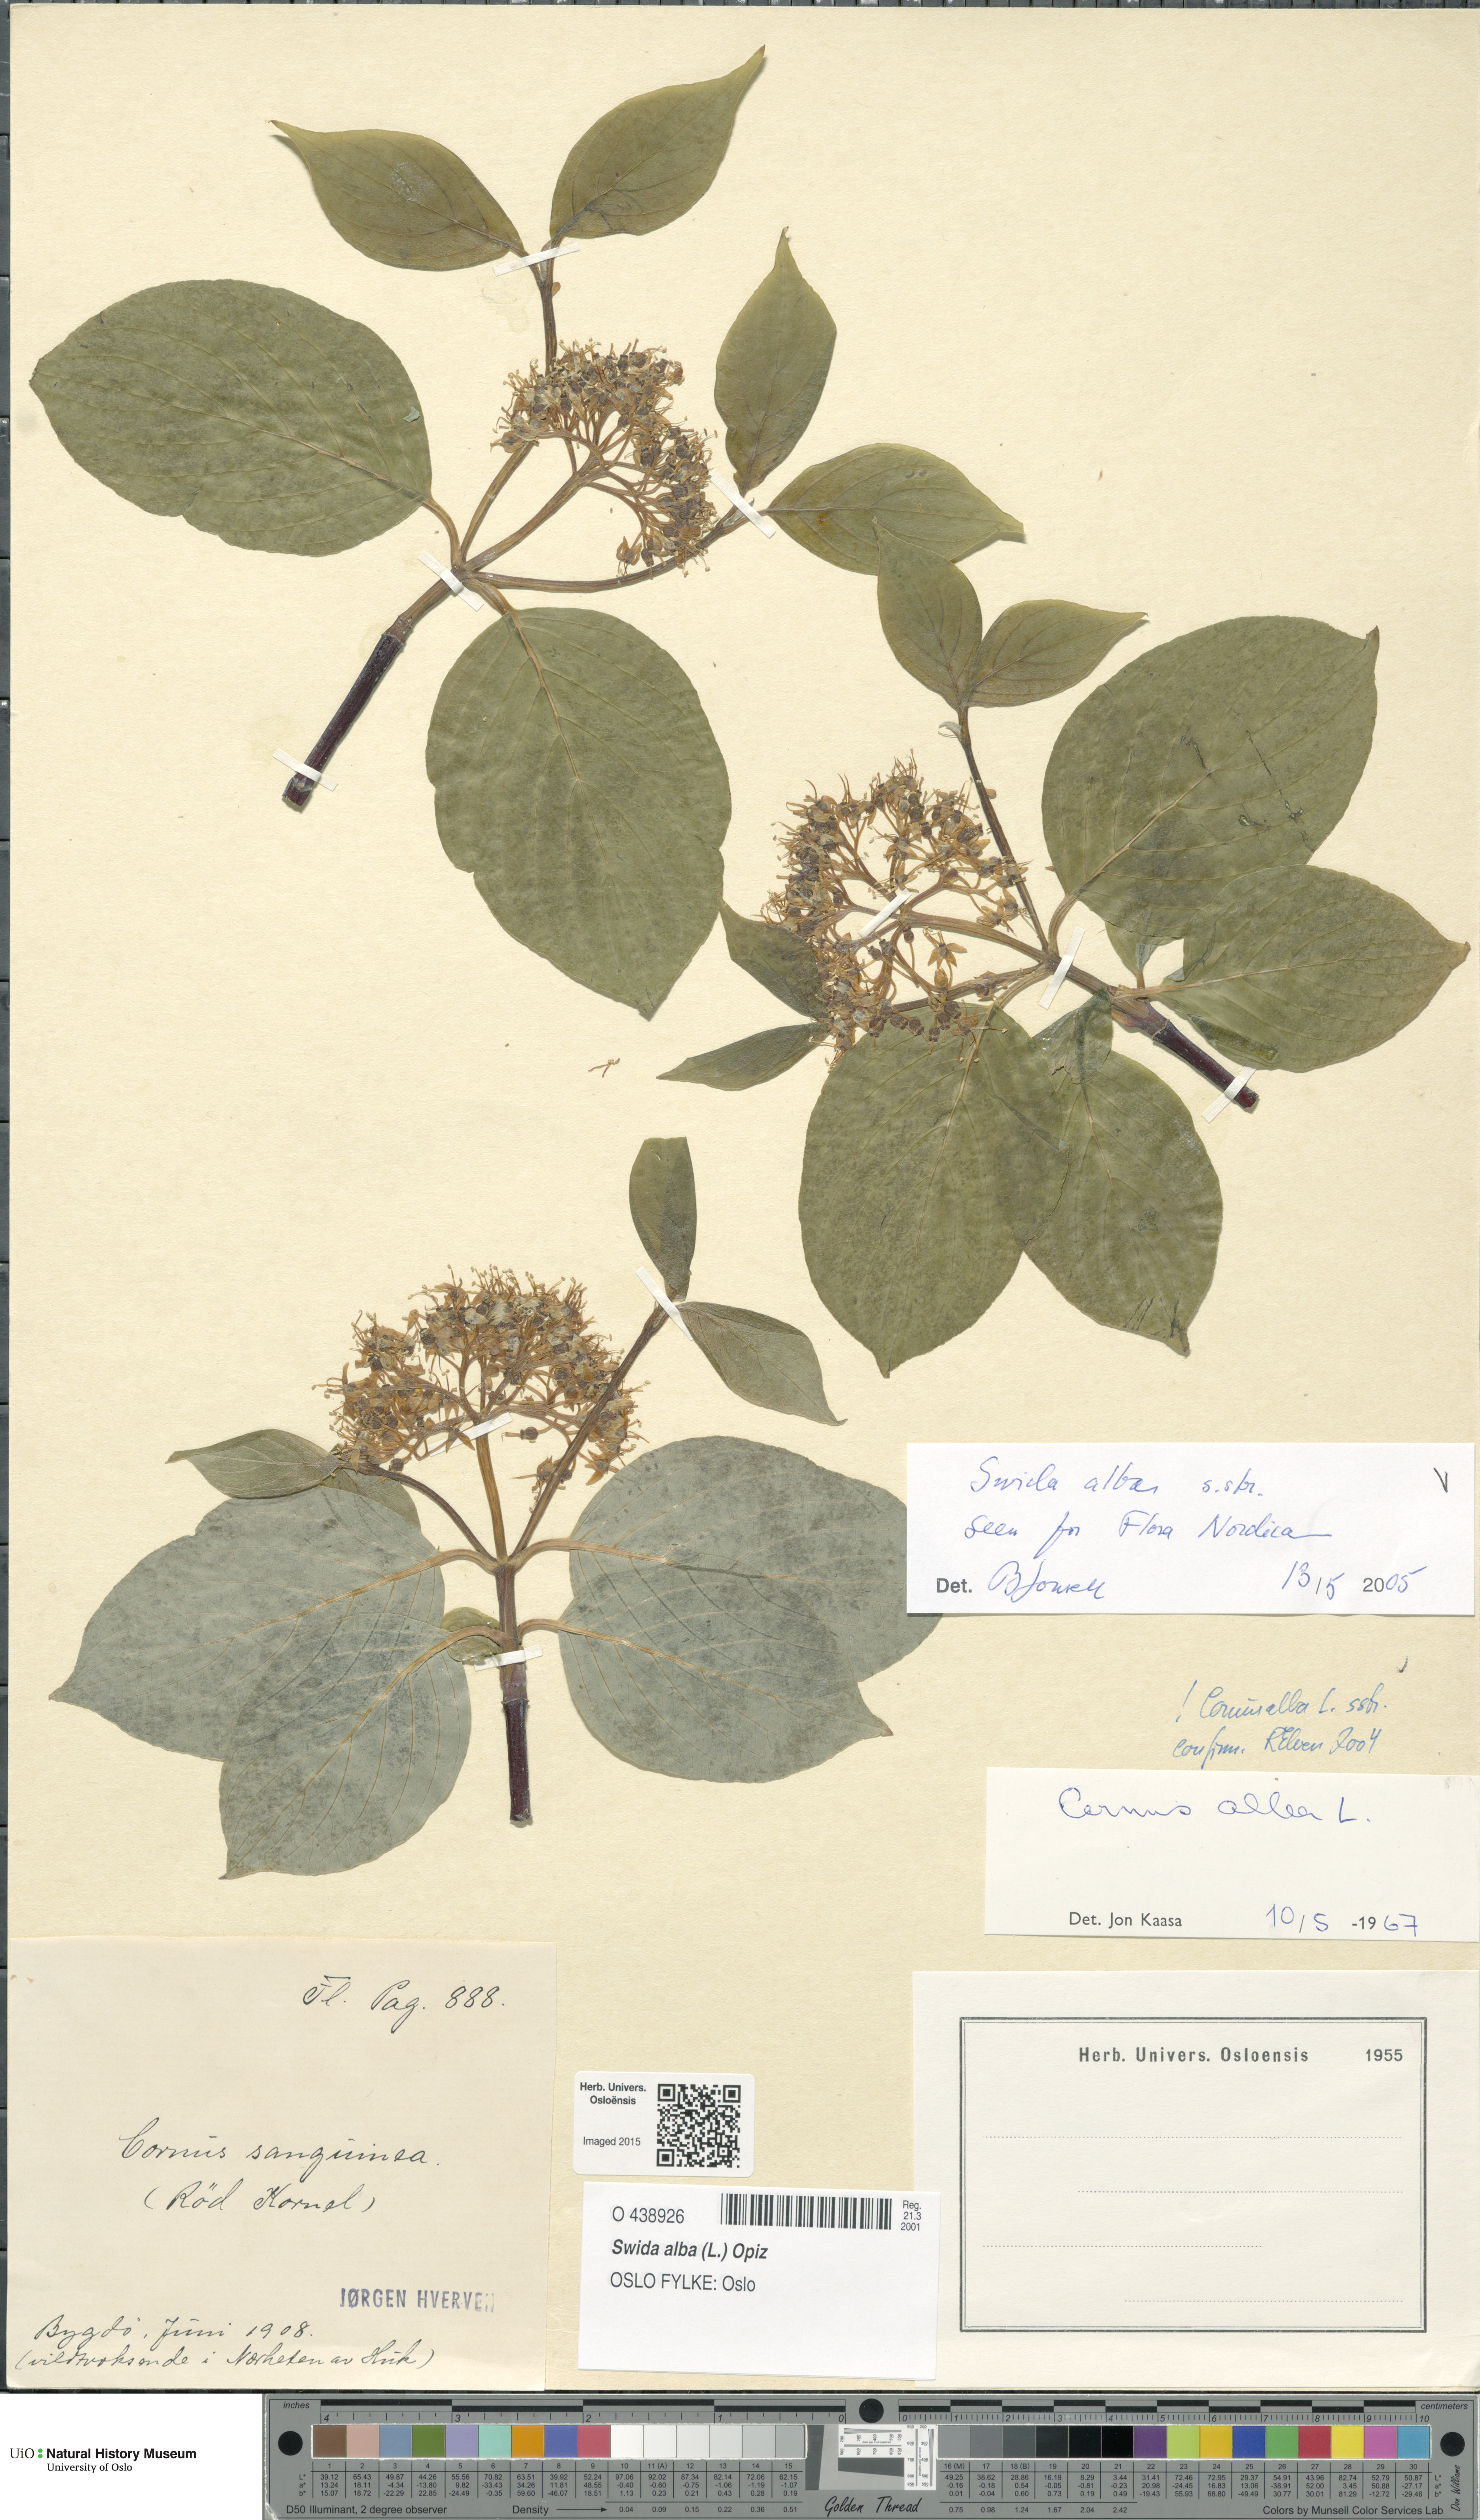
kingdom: Plantae
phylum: Tracheophyta
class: Magnoliopsida
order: Cornales
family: Cornaceae
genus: Cornus
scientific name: Cornus alba
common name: White dogwood
